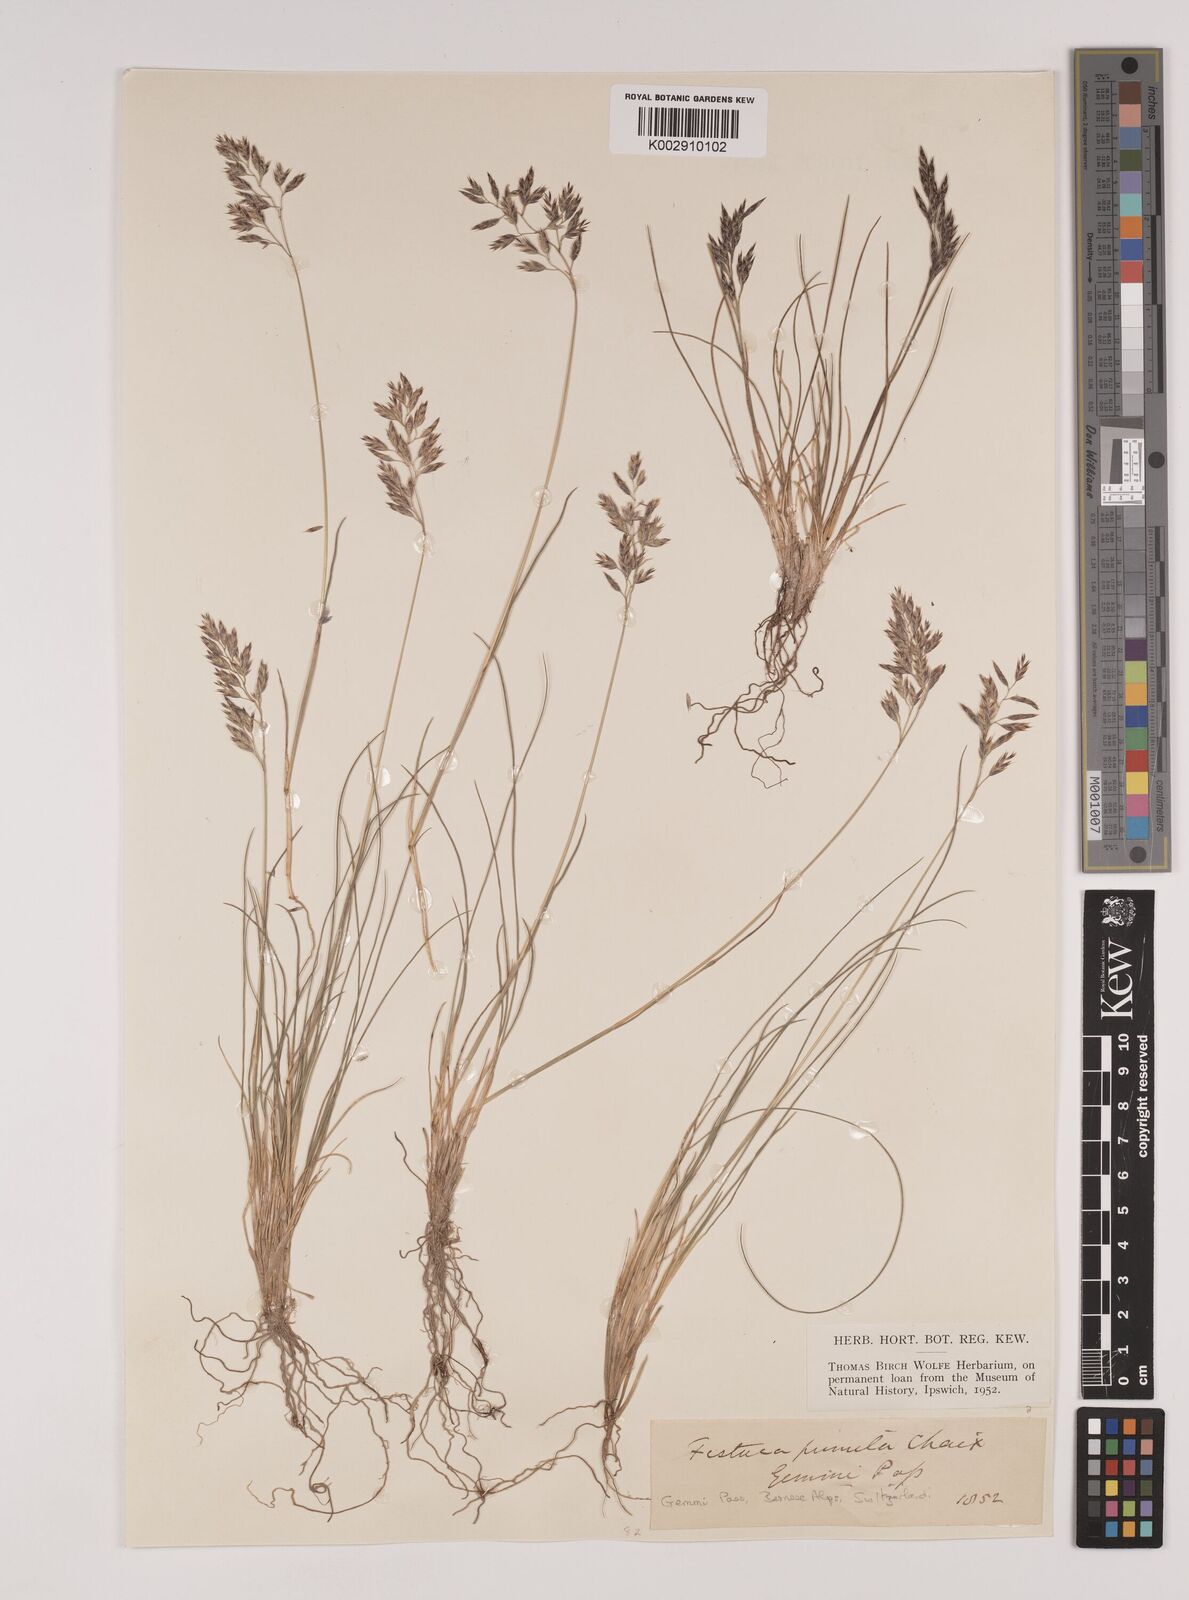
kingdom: Plantae
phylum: Tracheophyta
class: Liliopsida
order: Poales
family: Poaceae
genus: Festuca
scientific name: Festuca
